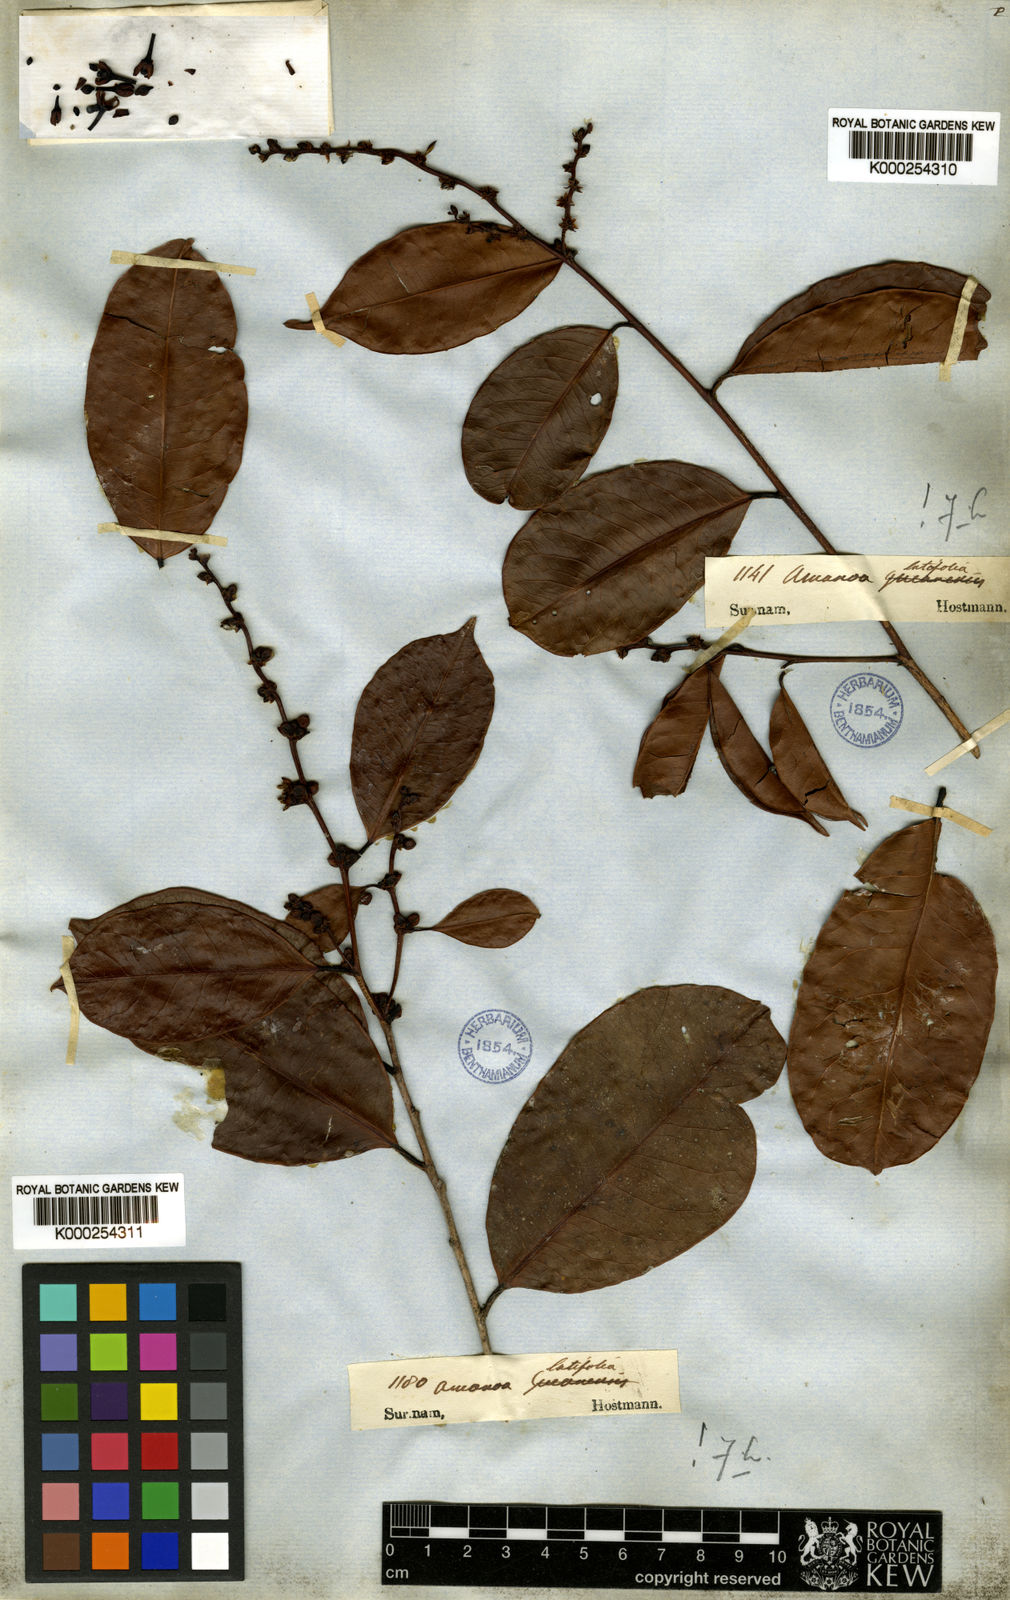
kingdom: Plantae
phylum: Tracheophyta
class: Magnoliopsida
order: Malpighiales
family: Phyllanthaceae
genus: Amanoa
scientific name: Amanoa guianensis
